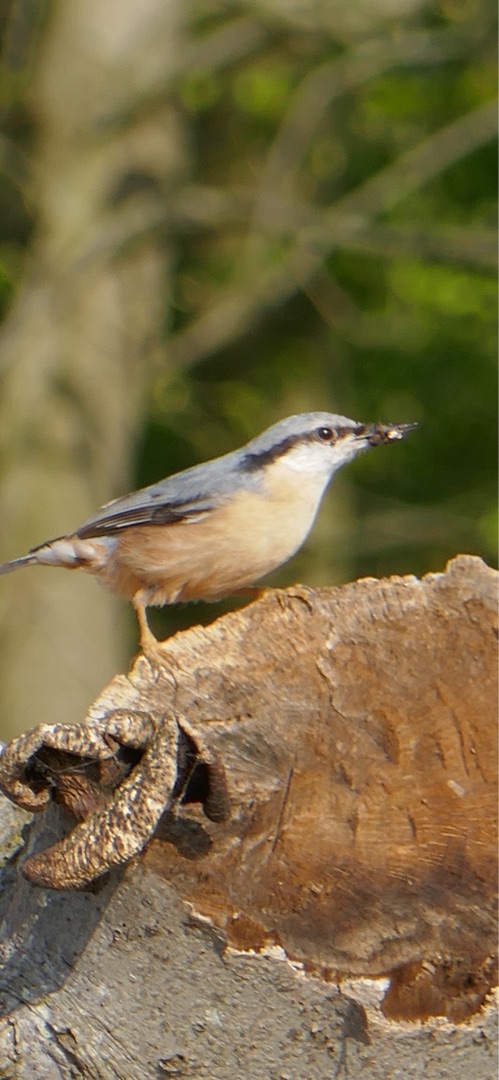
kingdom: Animalia
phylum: Chordata
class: Aves
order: Passeriformes
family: Sittidae
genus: Sitta
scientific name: Sitta europaea
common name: Spætmejse
